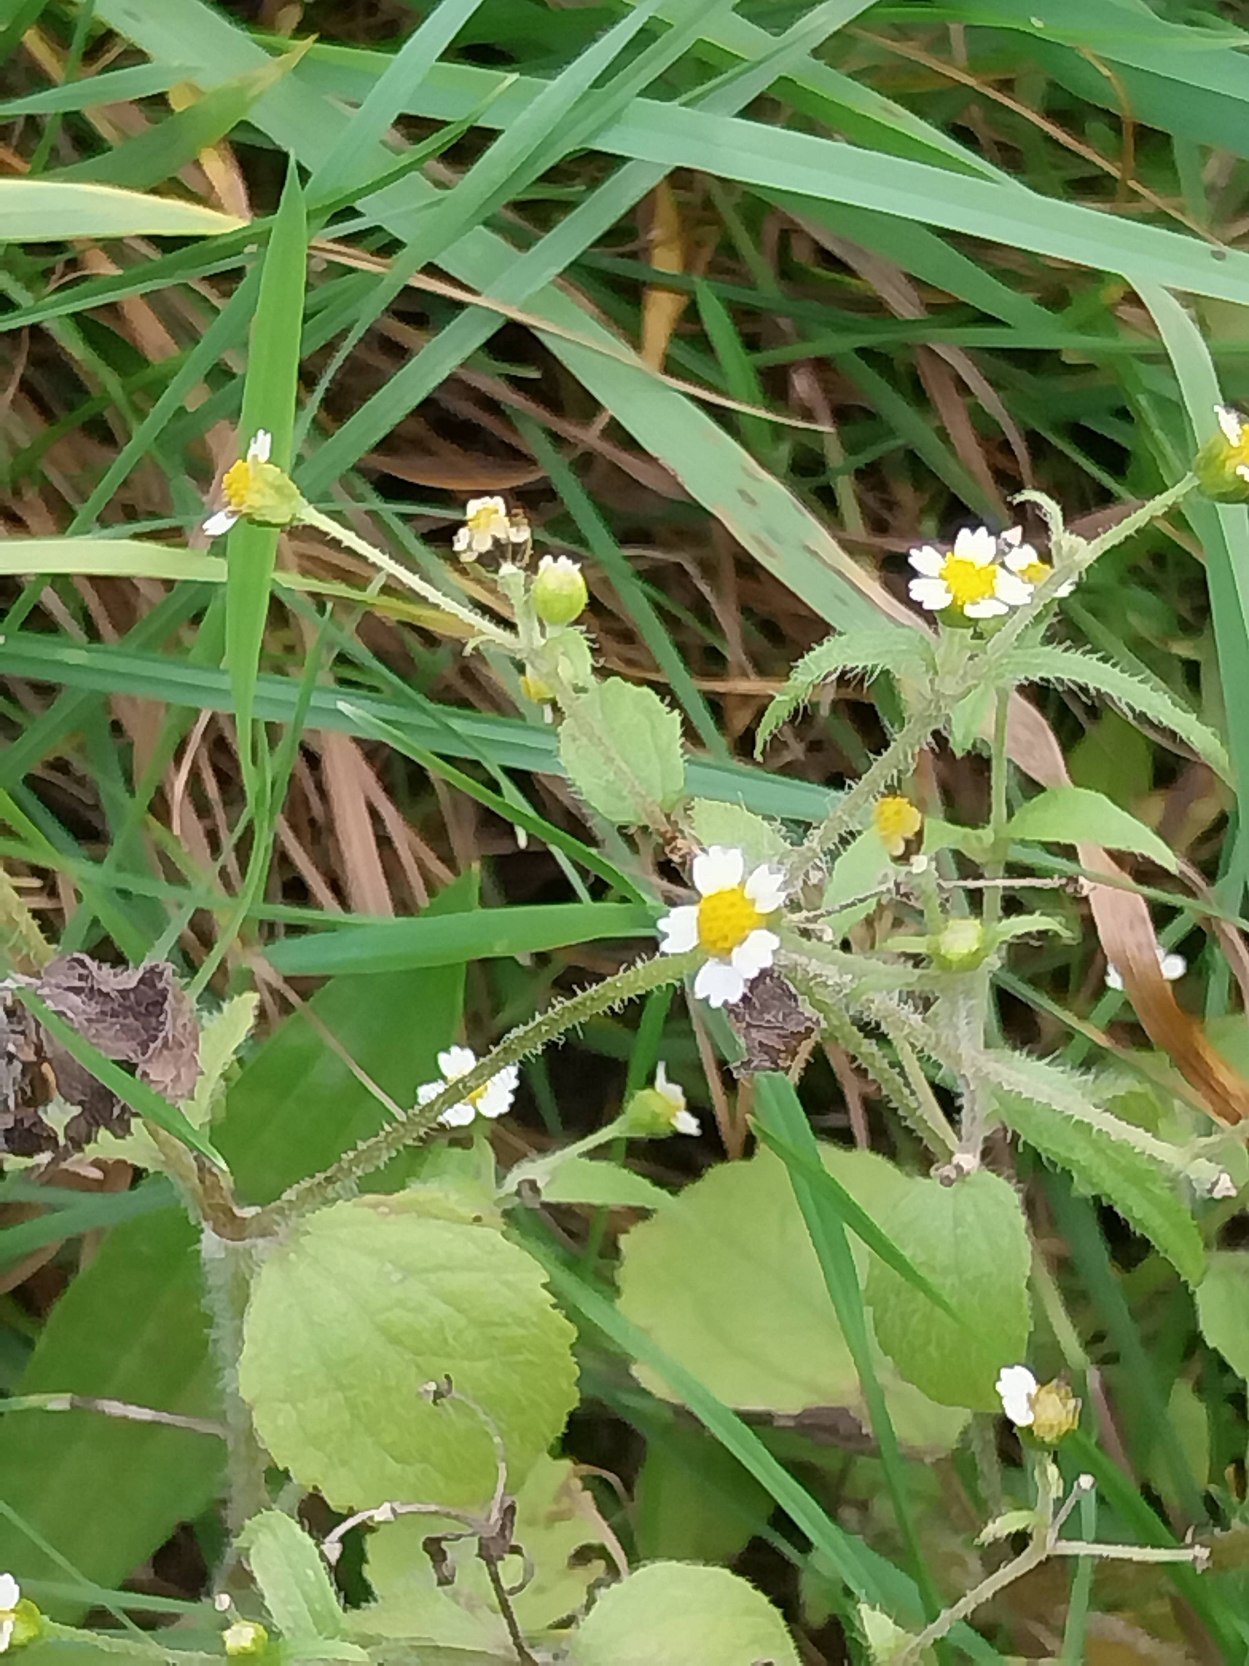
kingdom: Plantae
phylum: Tracheophyta
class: Magnoliopsida
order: Asterales
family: Asteraceae
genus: Galinsoga
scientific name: Galinsoga quadriradiata
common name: Kirtel-kortstråle
